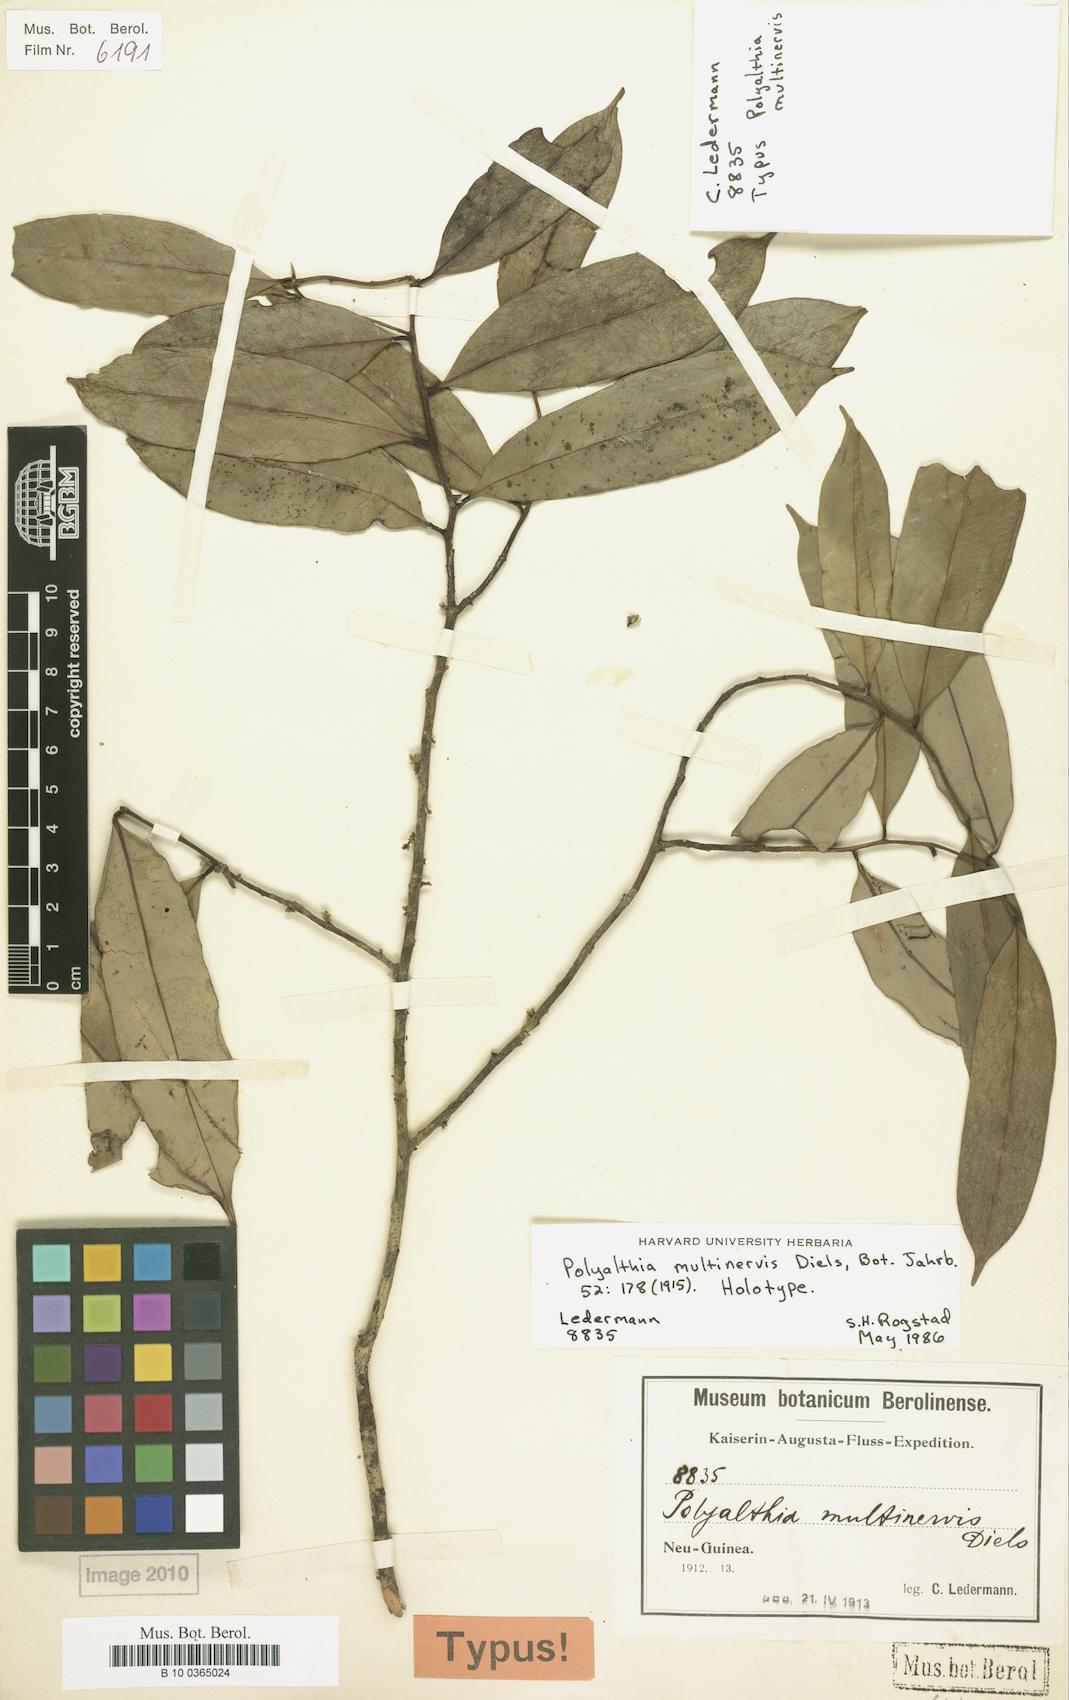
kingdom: Plantae
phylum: Tracheophyta
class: Magnoliopsida
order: Magnoliales
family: Annonaceae
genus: Maasia
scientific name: Maasia multinervis
